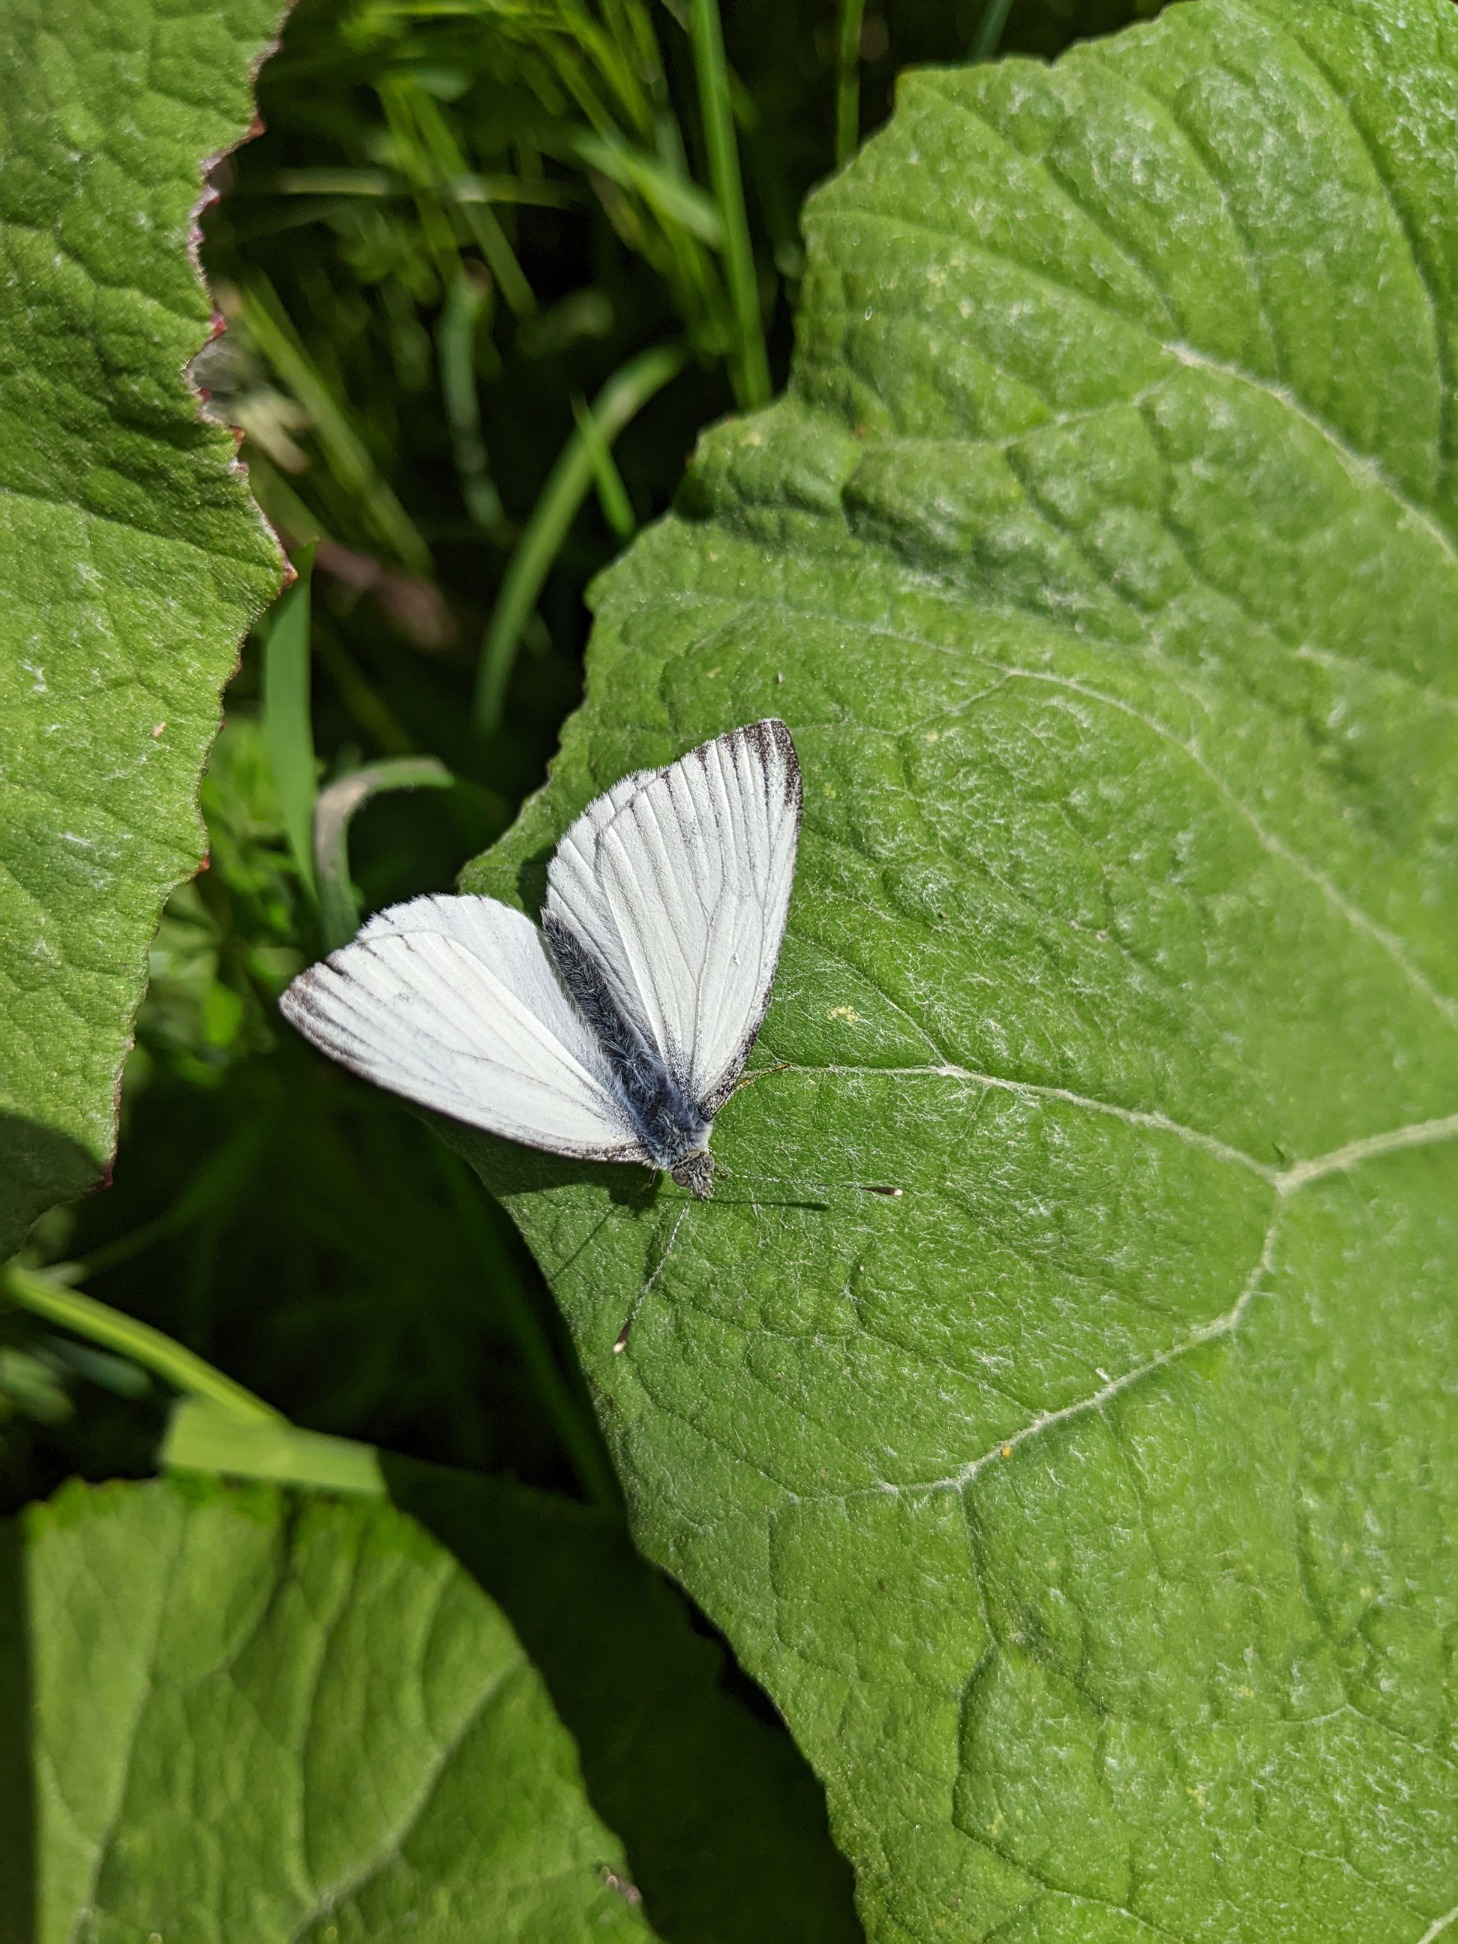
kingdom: Animalia
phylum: Arthropoda
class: Insecta
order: Lepidoptera
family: Pieridae
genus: Pieris
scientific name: Pieris napi
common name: Grønåret kålsommerfugl
